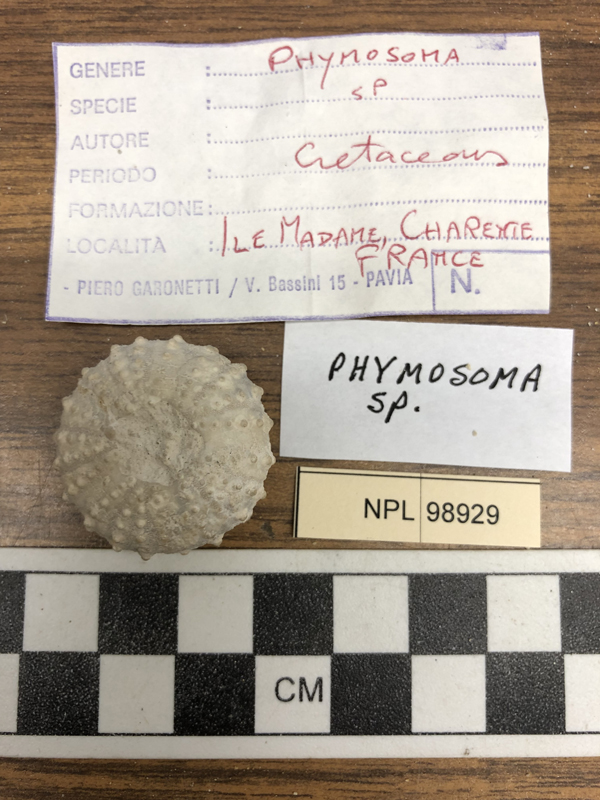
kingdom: Animalia
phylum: Echinodermata
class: Echinoidea
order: Phymosomatoida
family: Phymosomatidae
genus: Phymosoma
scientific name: Phymosoma
